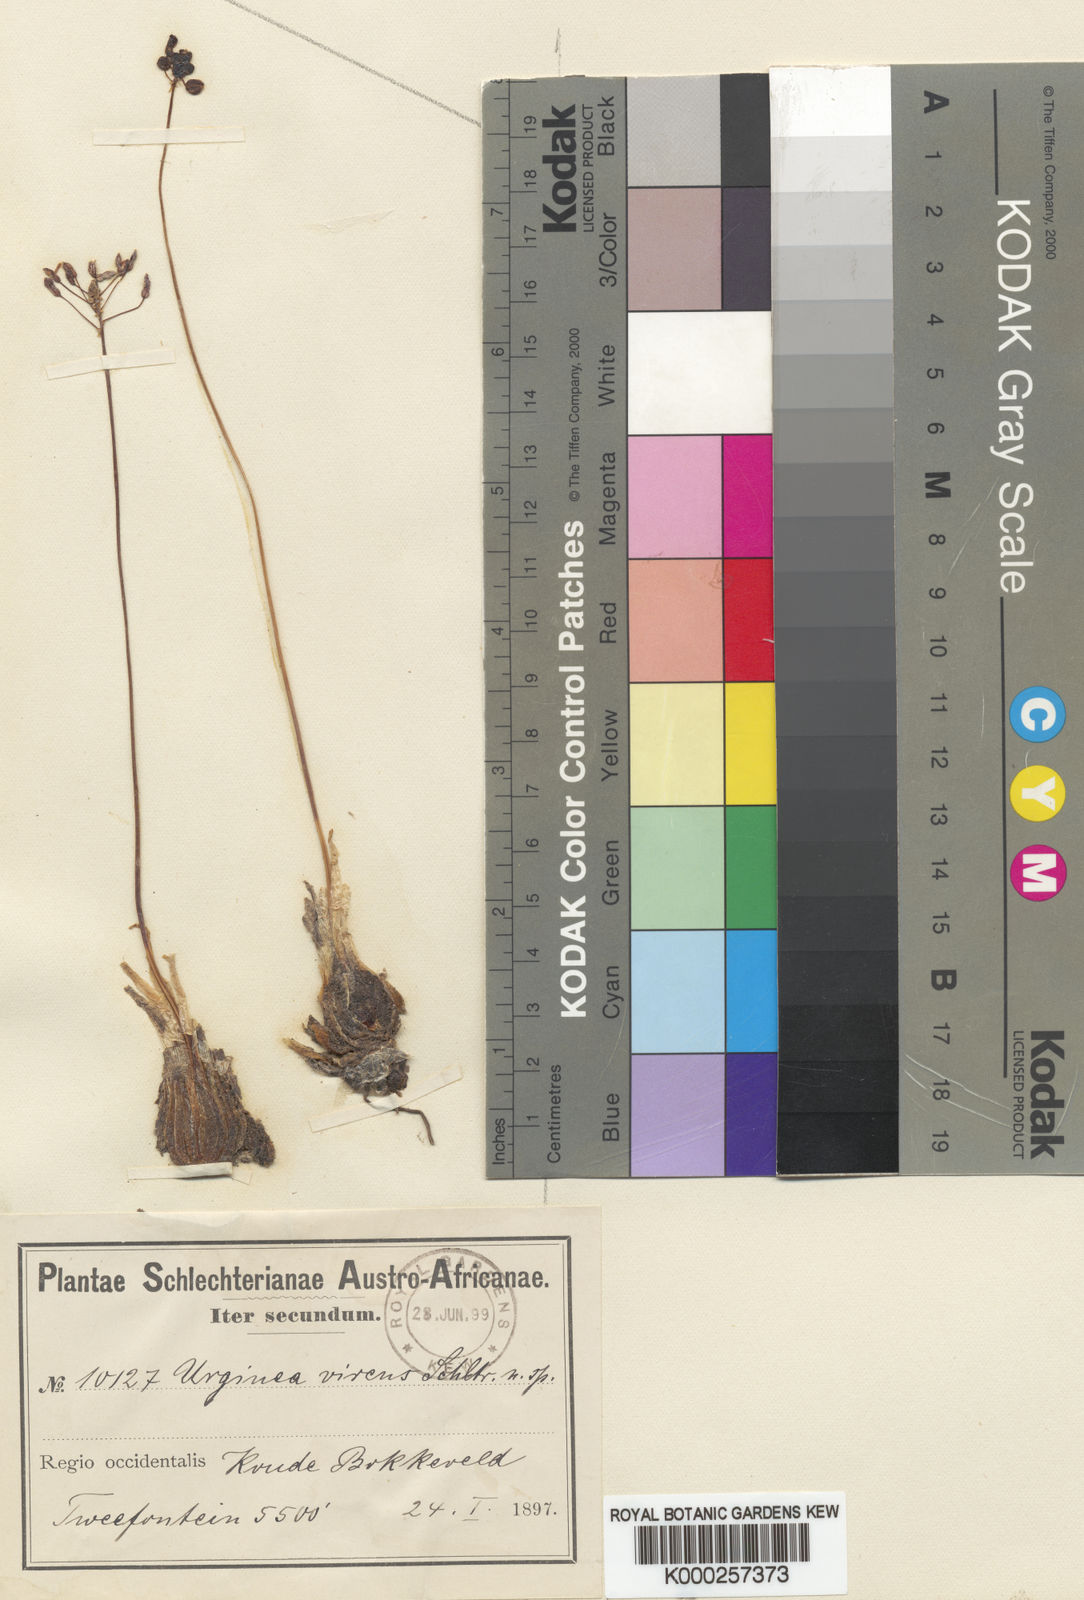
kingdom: Plantae
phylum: Tracheophyta
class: Liliopsida
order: Asparagales
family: Asparagaceae
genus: Austronea
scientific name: Austronea virens
